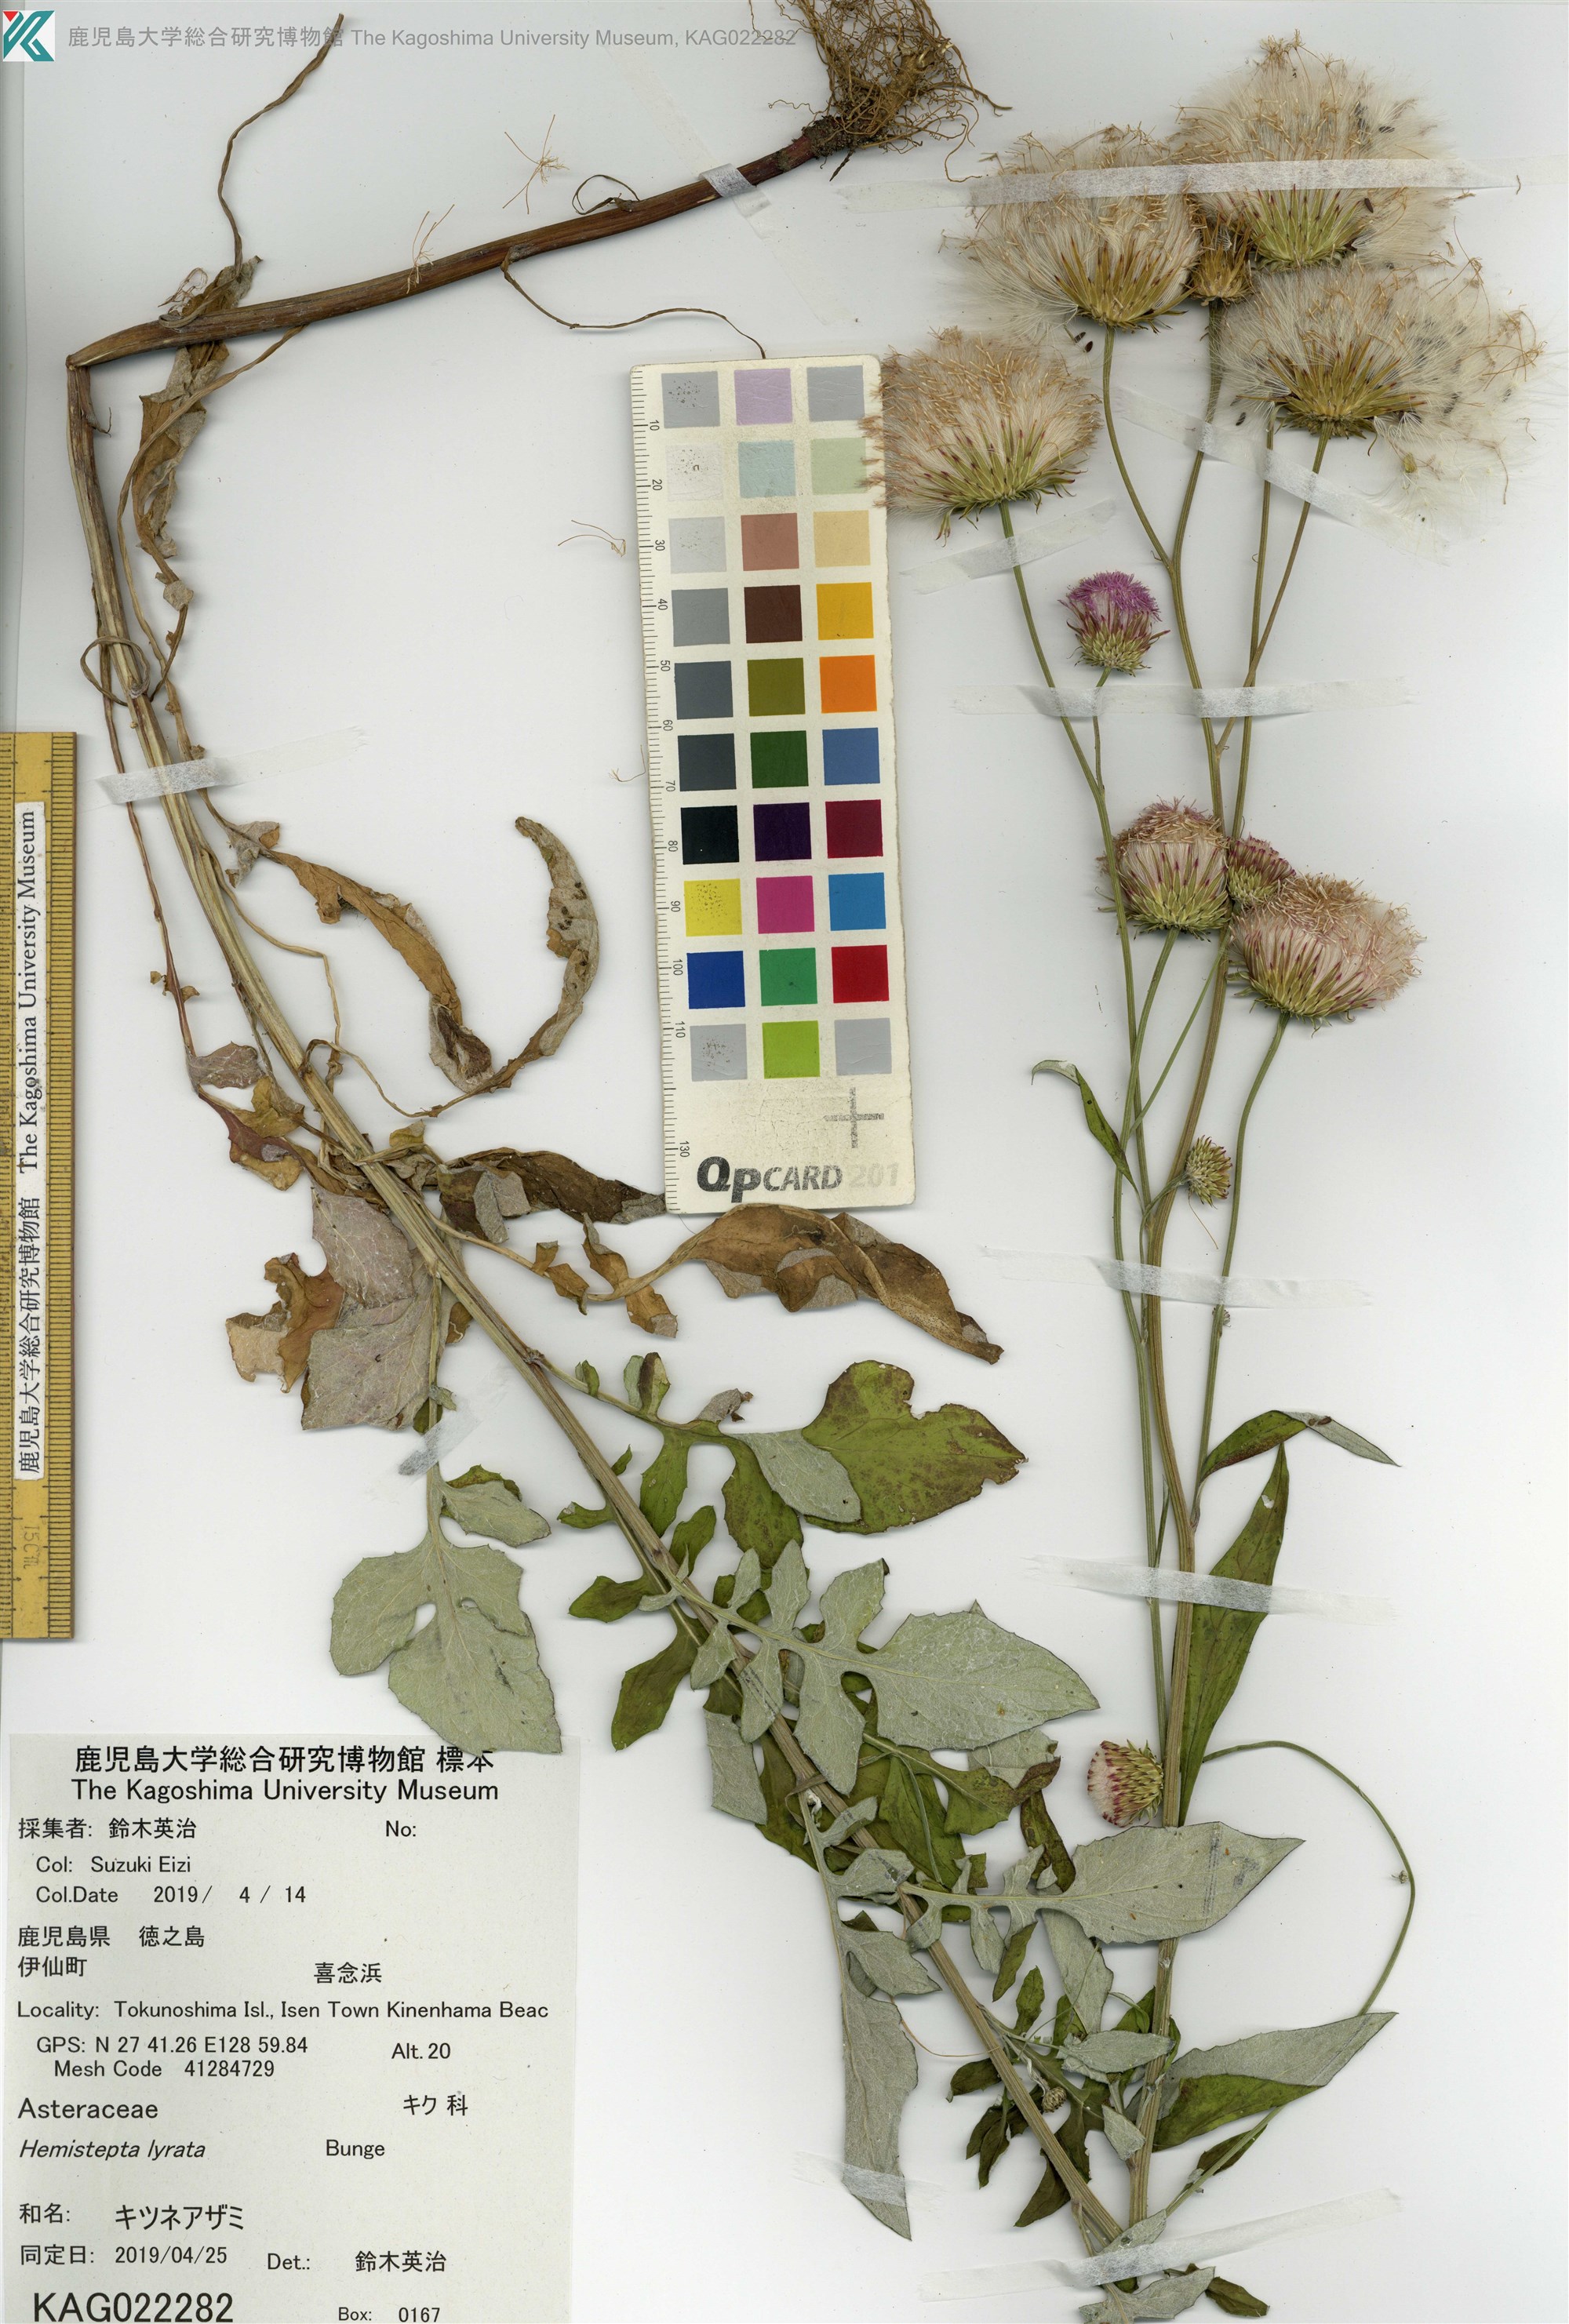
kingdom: Plantae
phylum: Tracheophyta
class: Magnoliopsida
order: Asterales
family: Asteraceae
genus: Saussurea
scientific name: Saussurea lyrata
